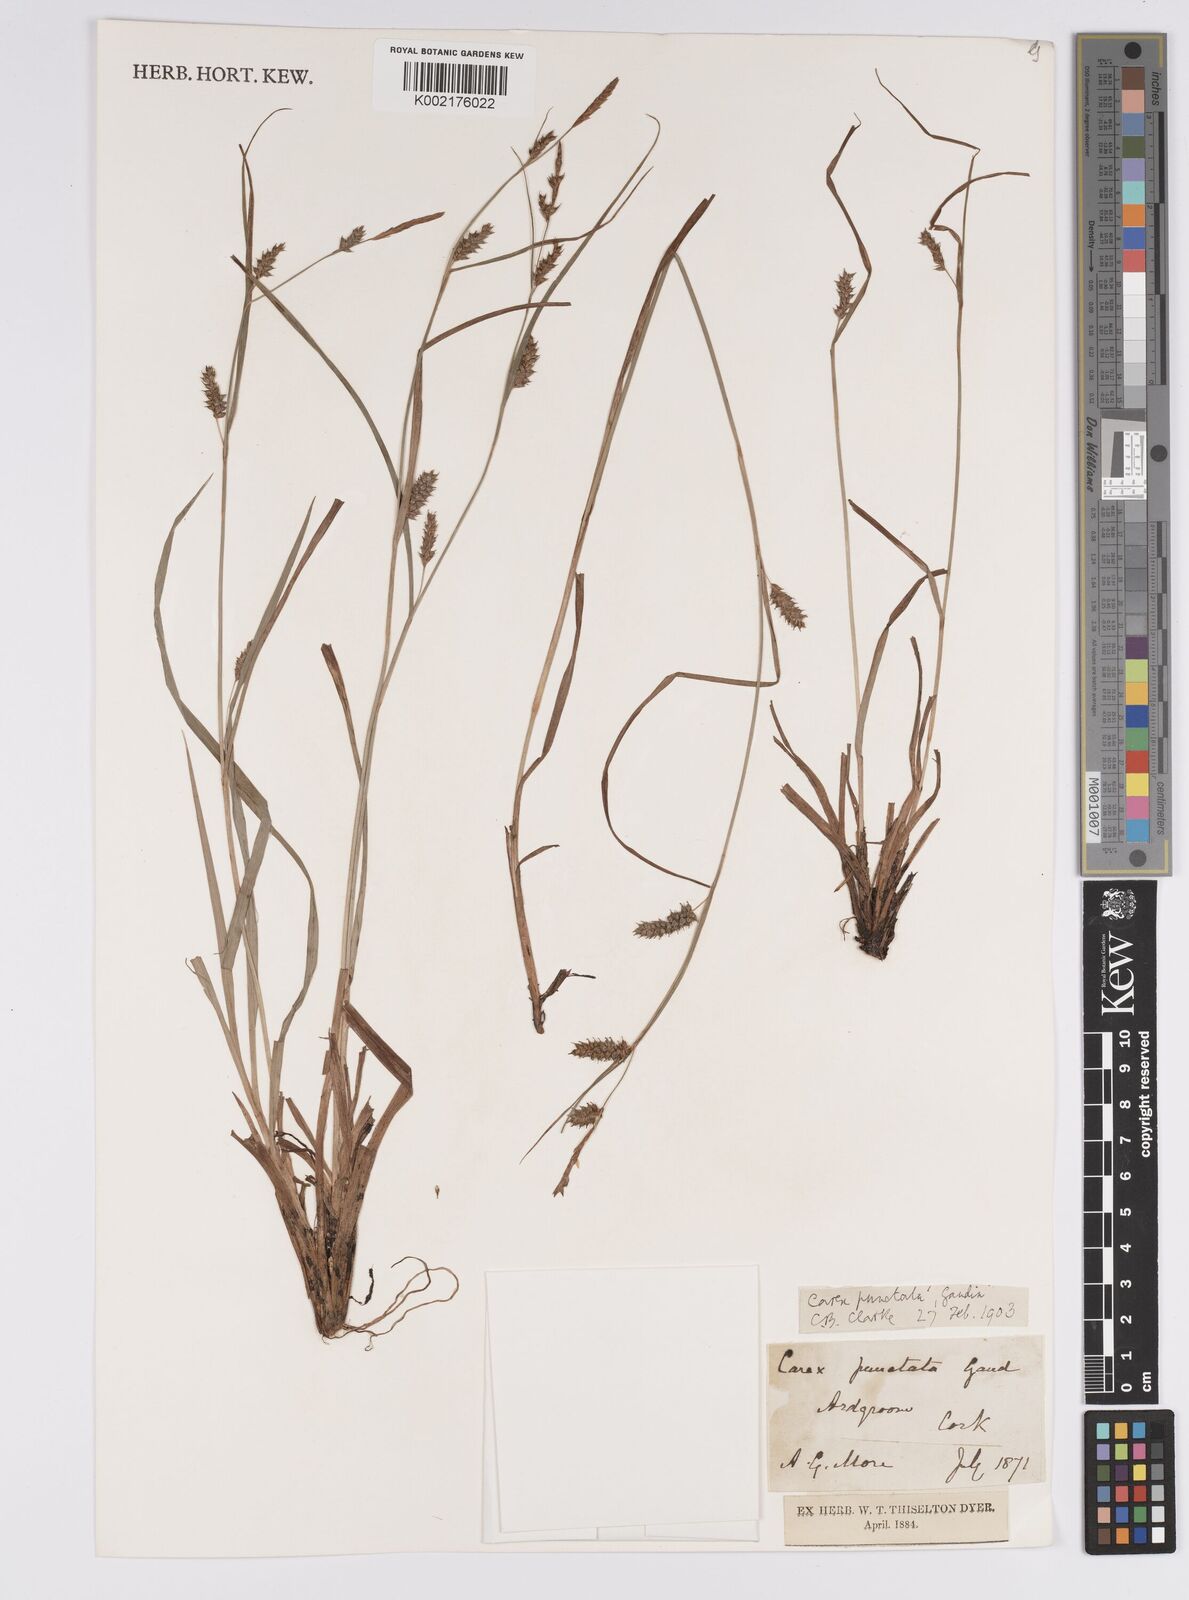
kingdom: Plantae
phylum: Tracheophyta
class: Liliopsida
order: Poales
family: Cyperaceae
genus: Carex
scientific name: Carex punctata
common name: Dotted sedge
